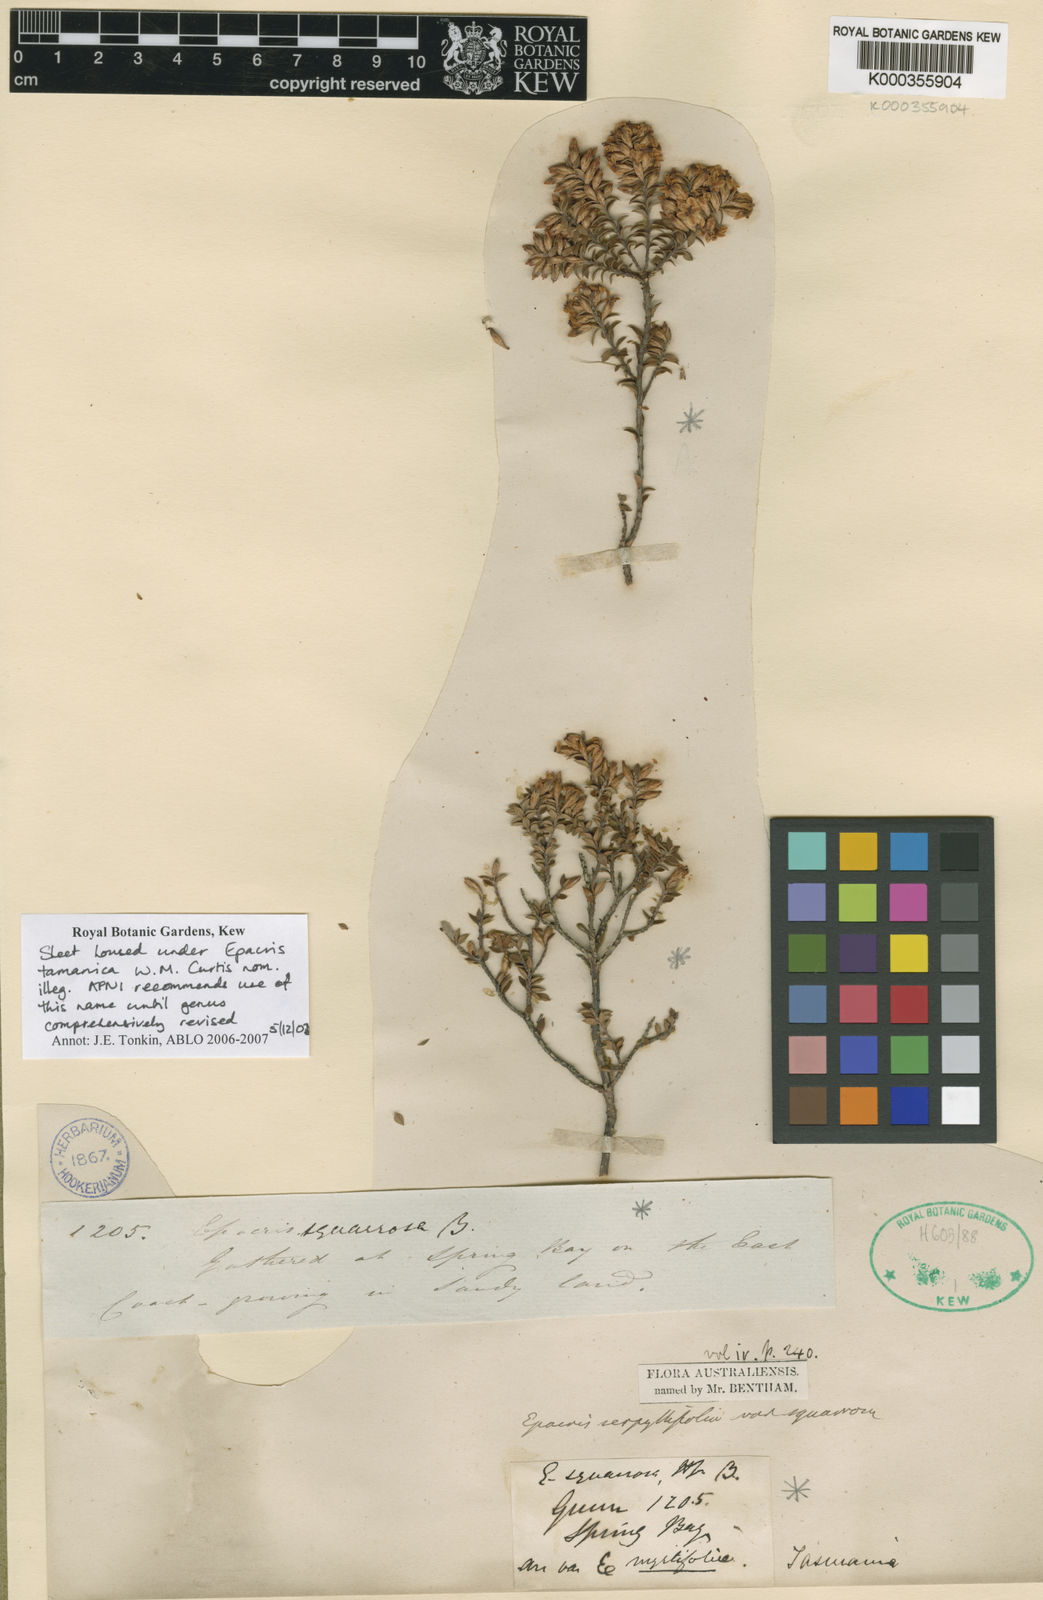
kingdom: Plantae
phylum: Tracheophyta
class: Magnoliopsida
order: Ericales
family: Ericaceae
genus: Epacris
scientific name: Epacris tasmanica
